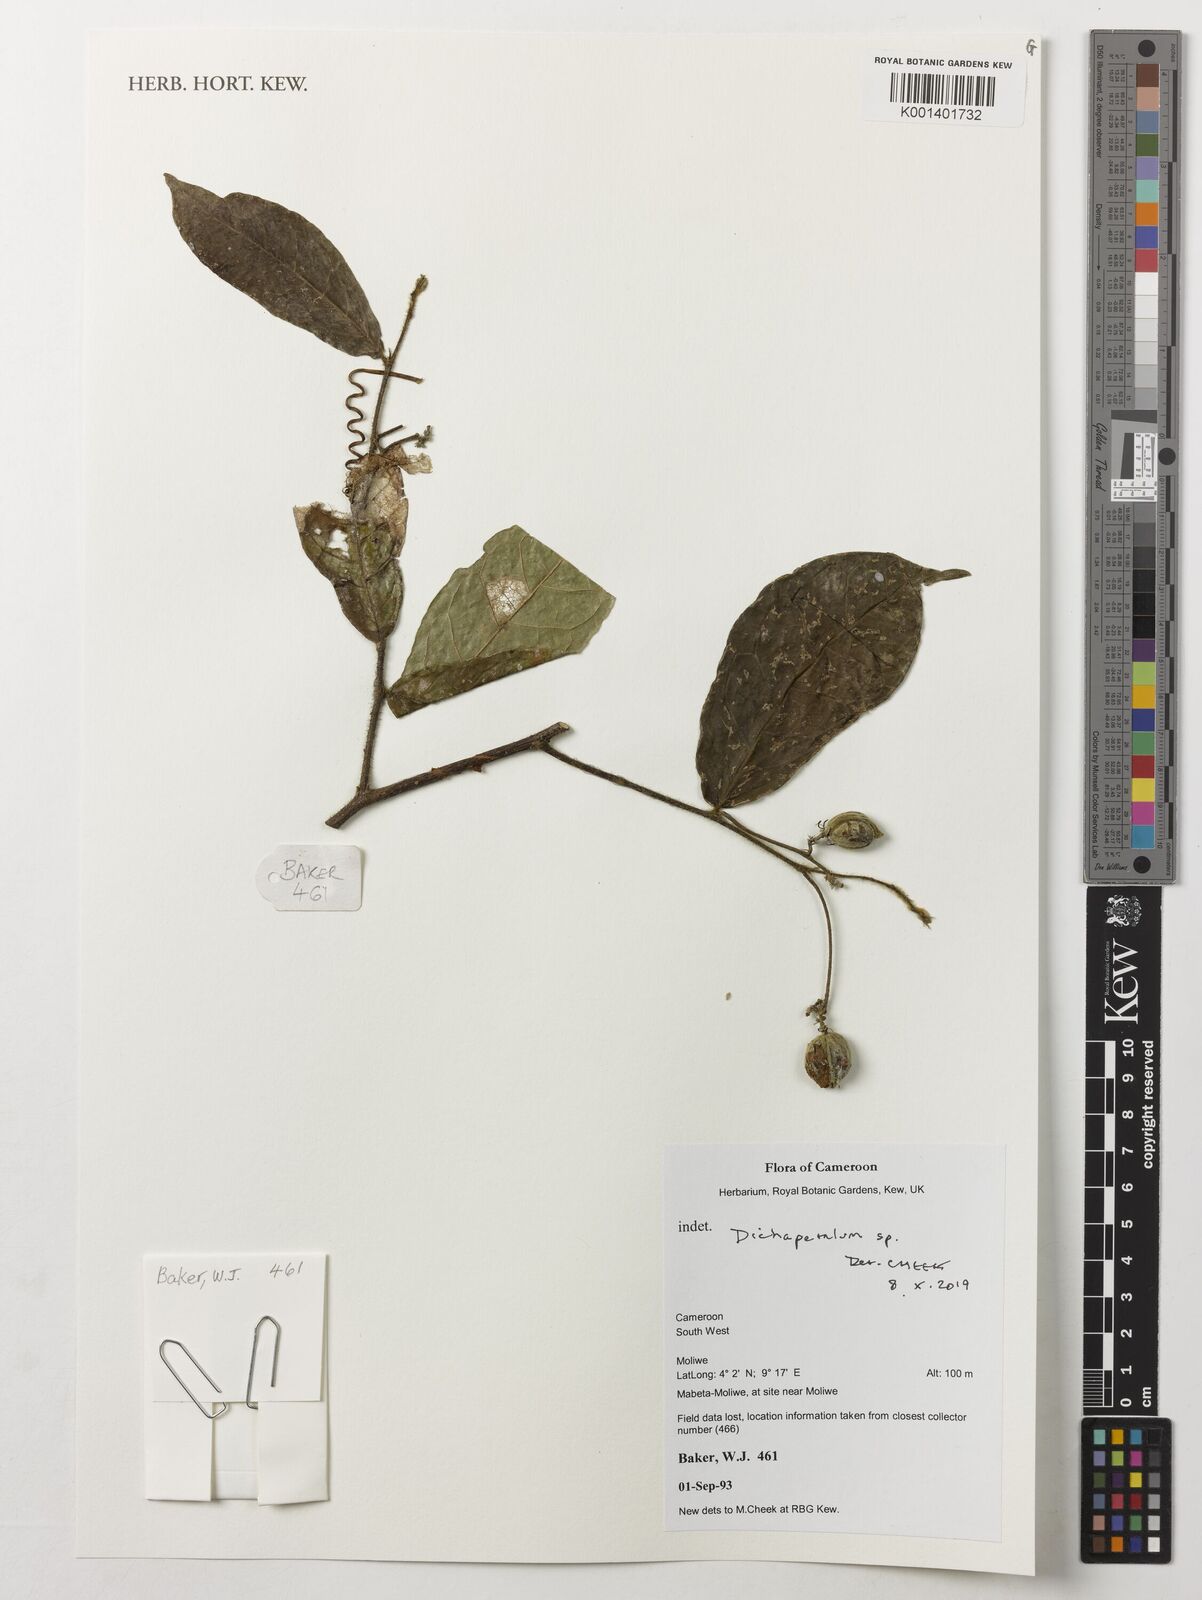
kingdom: Plantae
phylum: Tracheophyta
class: Magnoliopsida
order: Malpighiales
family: Dichapetalaceae
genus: Dichapetalum
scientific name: Dichapetalum
